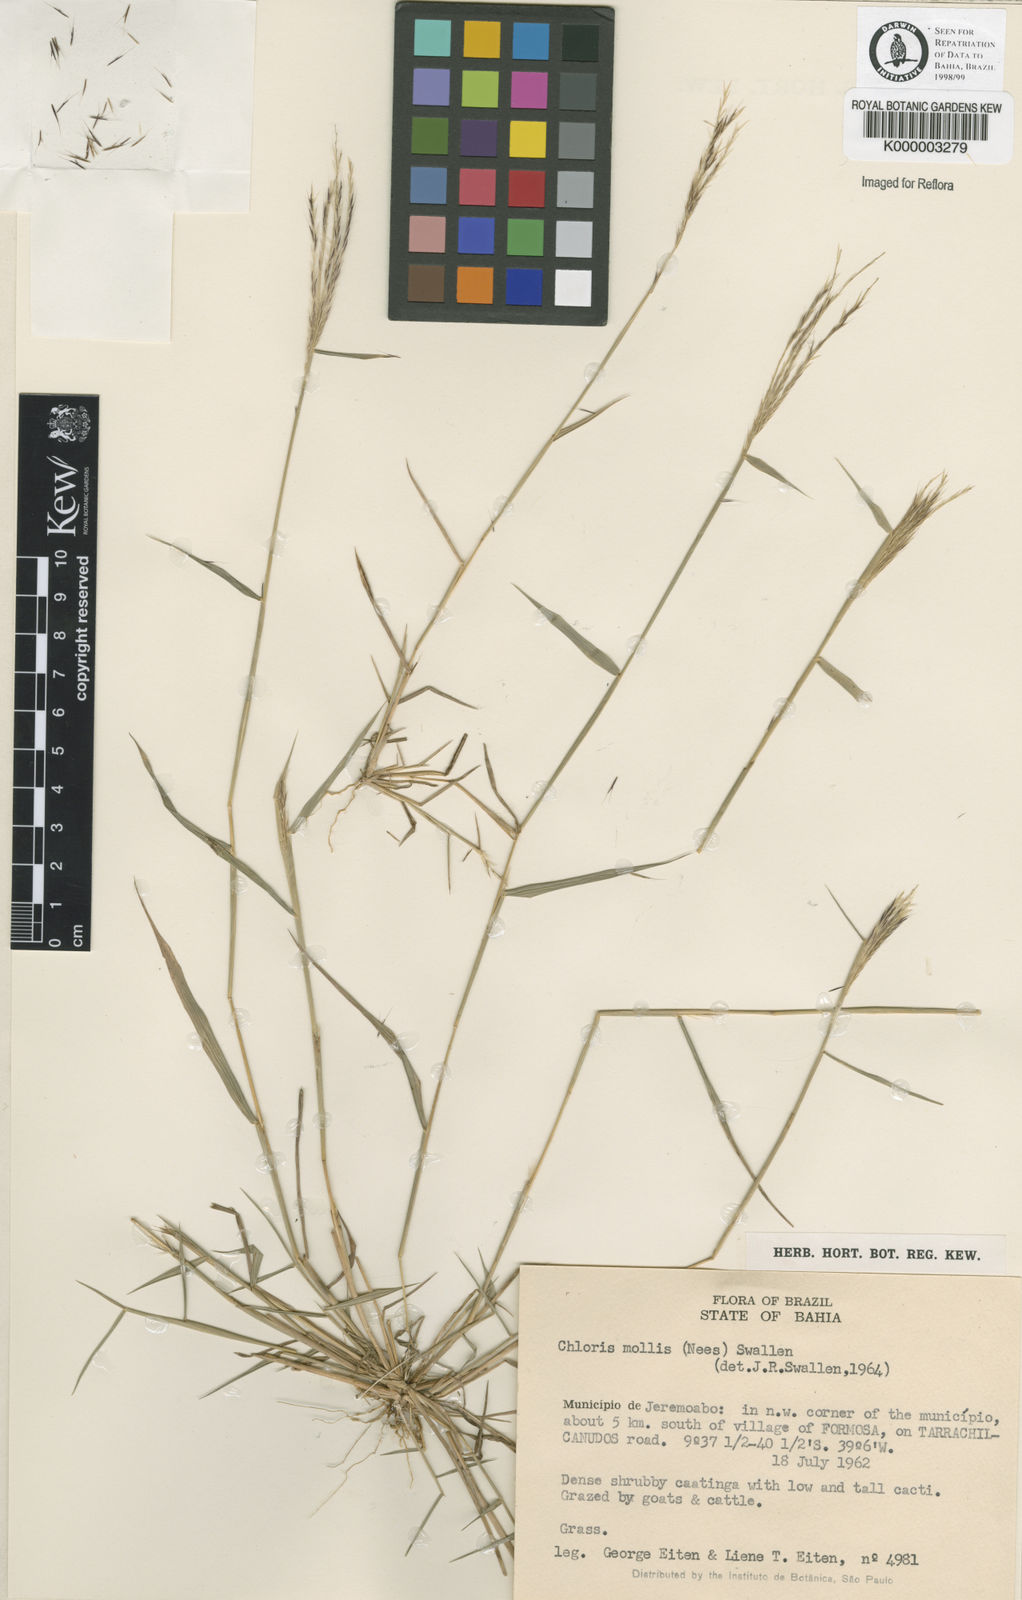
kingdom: Plantae
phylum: Tracheophyta
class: Liliopsida
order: Poales
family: Poaceae
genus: Leptochloa
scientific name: Leptochloa anisopoda
